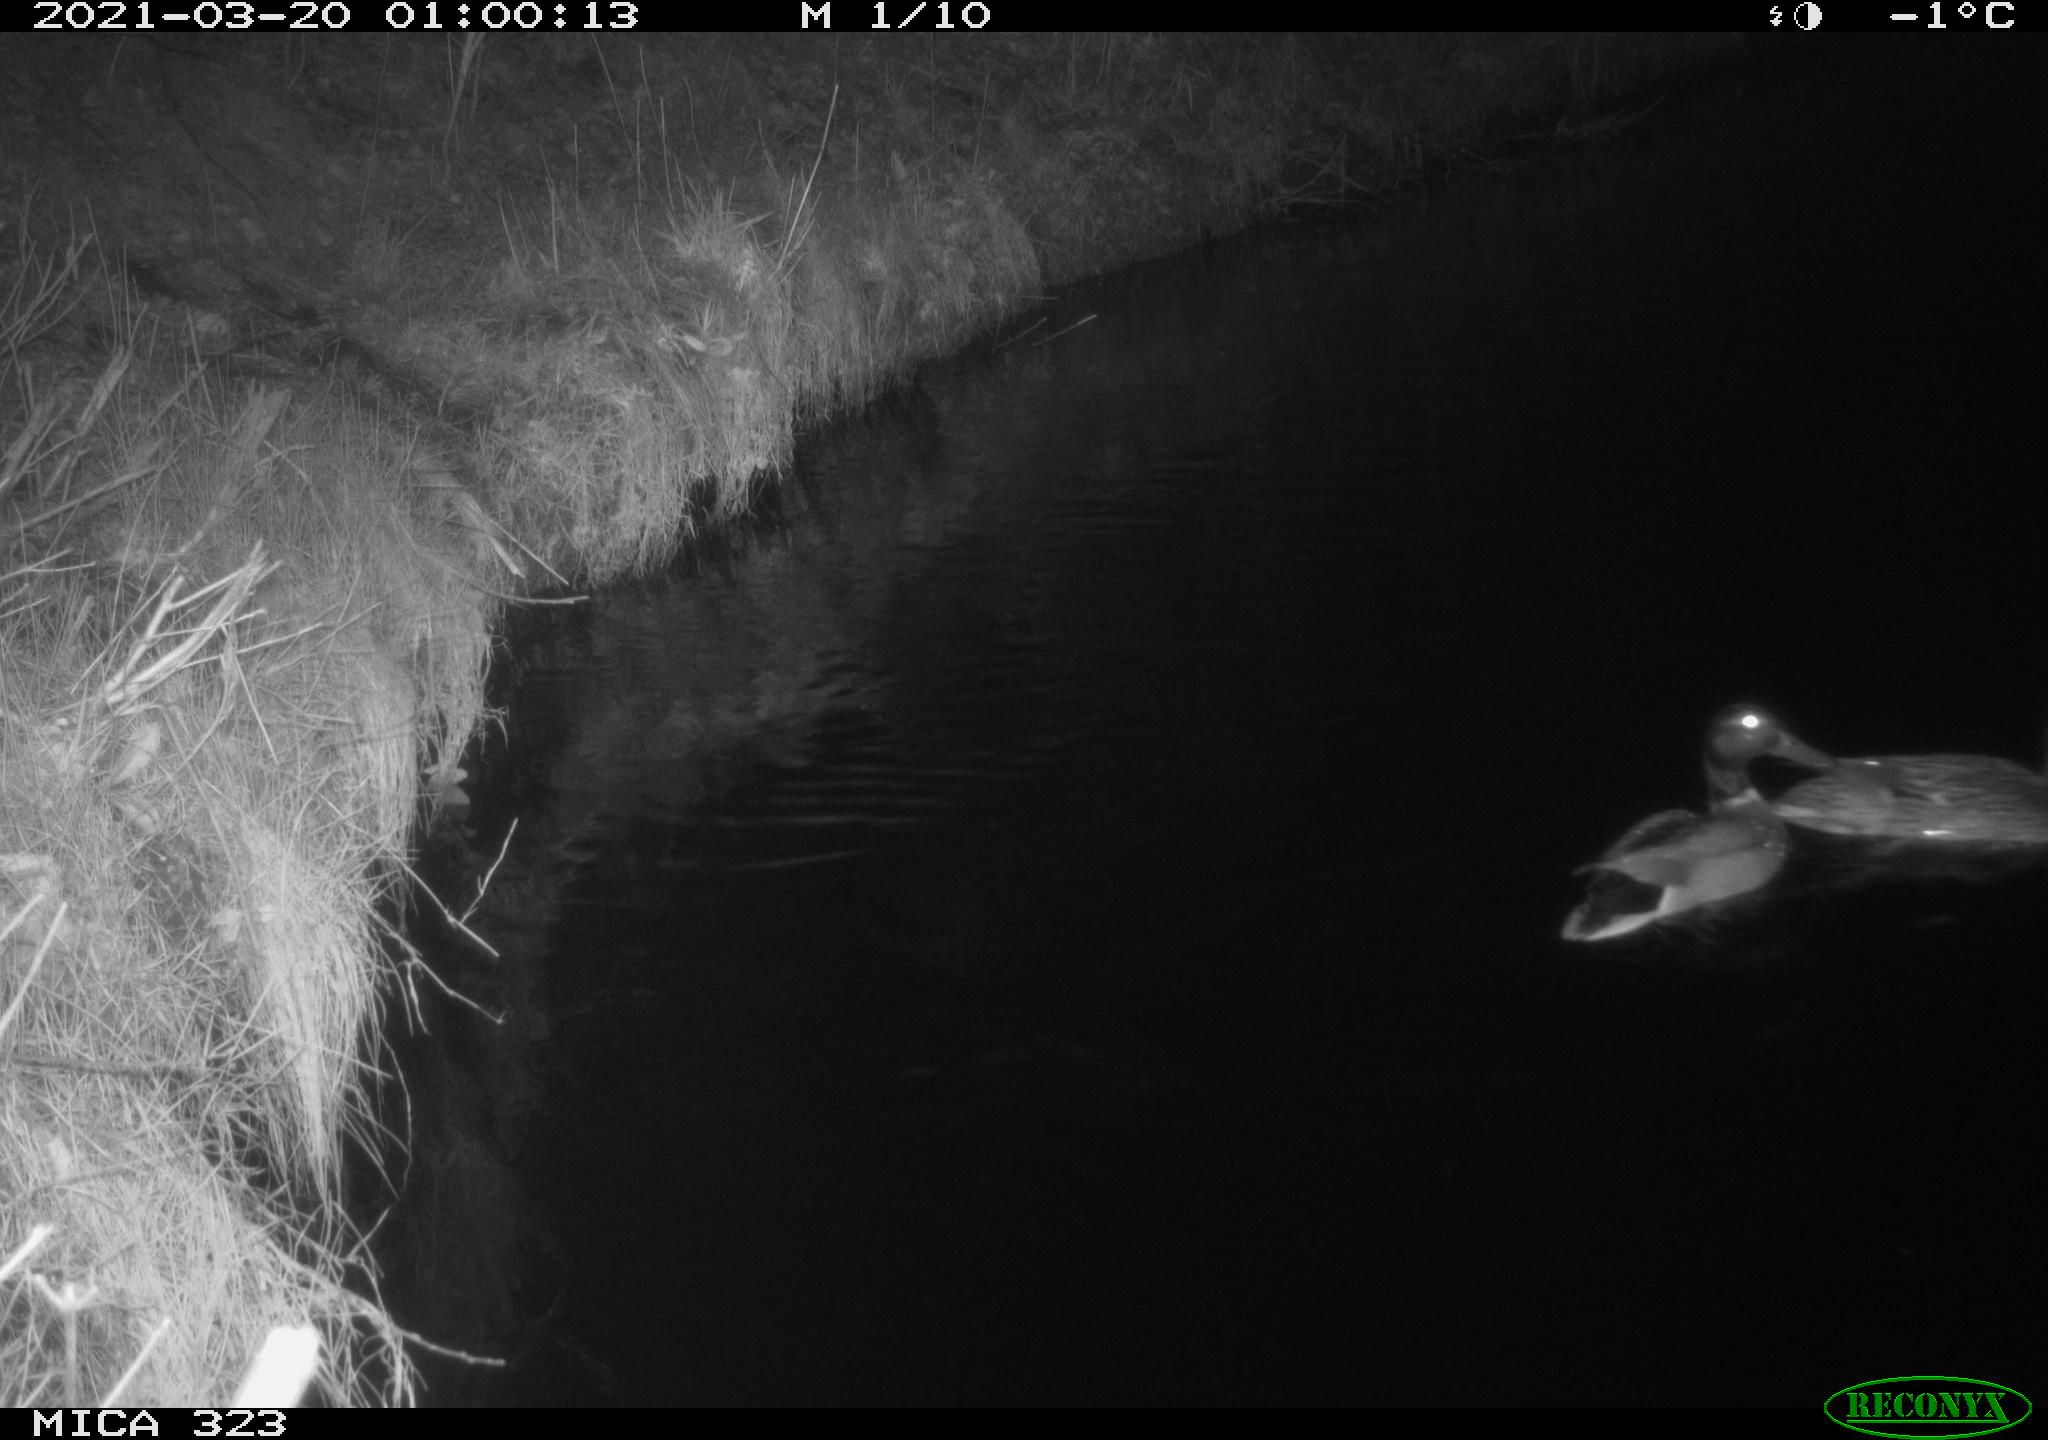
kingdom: Animalia
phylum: Chordata
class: Aves
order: Anseriformes
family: Anatidae
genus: Anas
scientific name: Anas platyrhynchos
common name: Mallard
